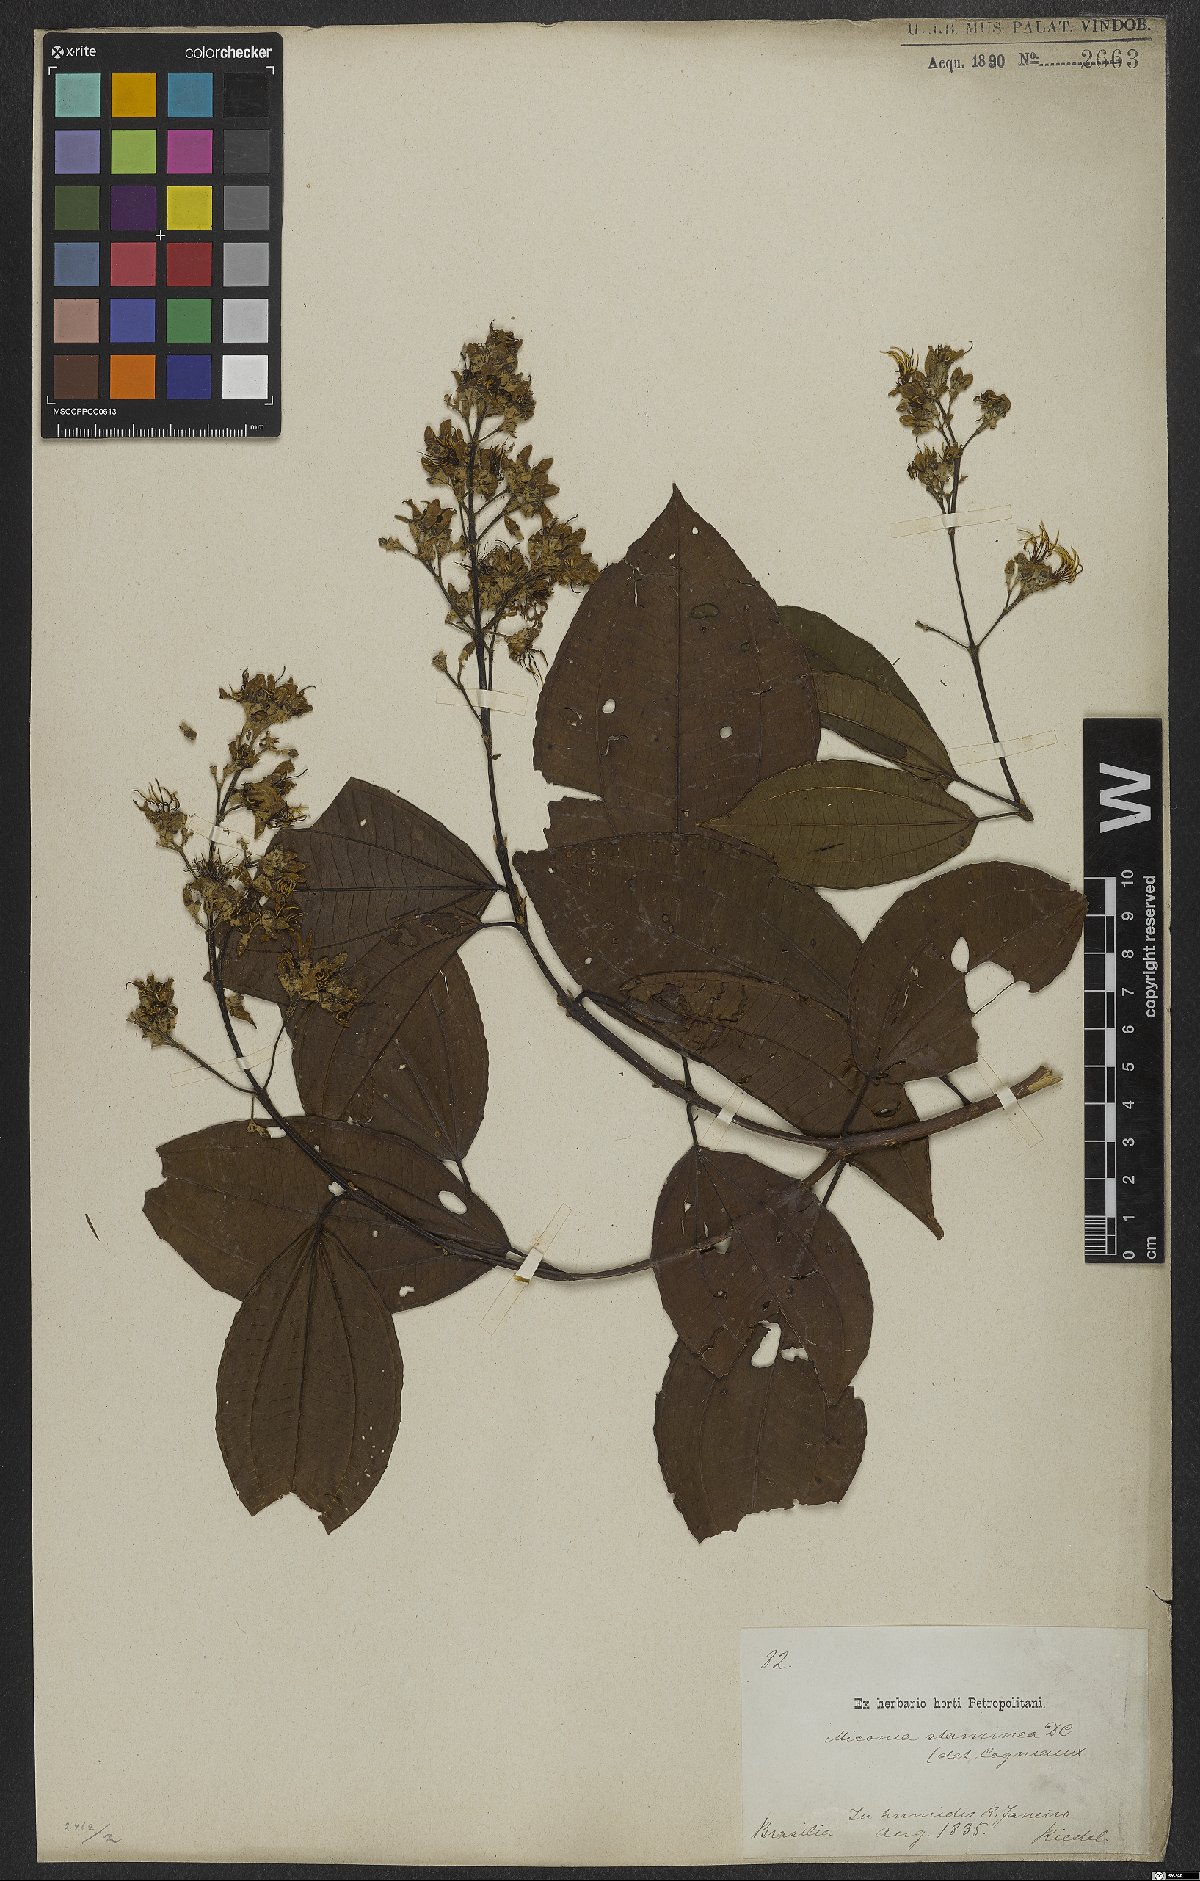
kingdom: Plantae
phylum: Tracheophyta
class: Magnoliopsida
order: Myrtales
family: Melastomataceae
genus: Miconia
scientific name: Miconia staminea
